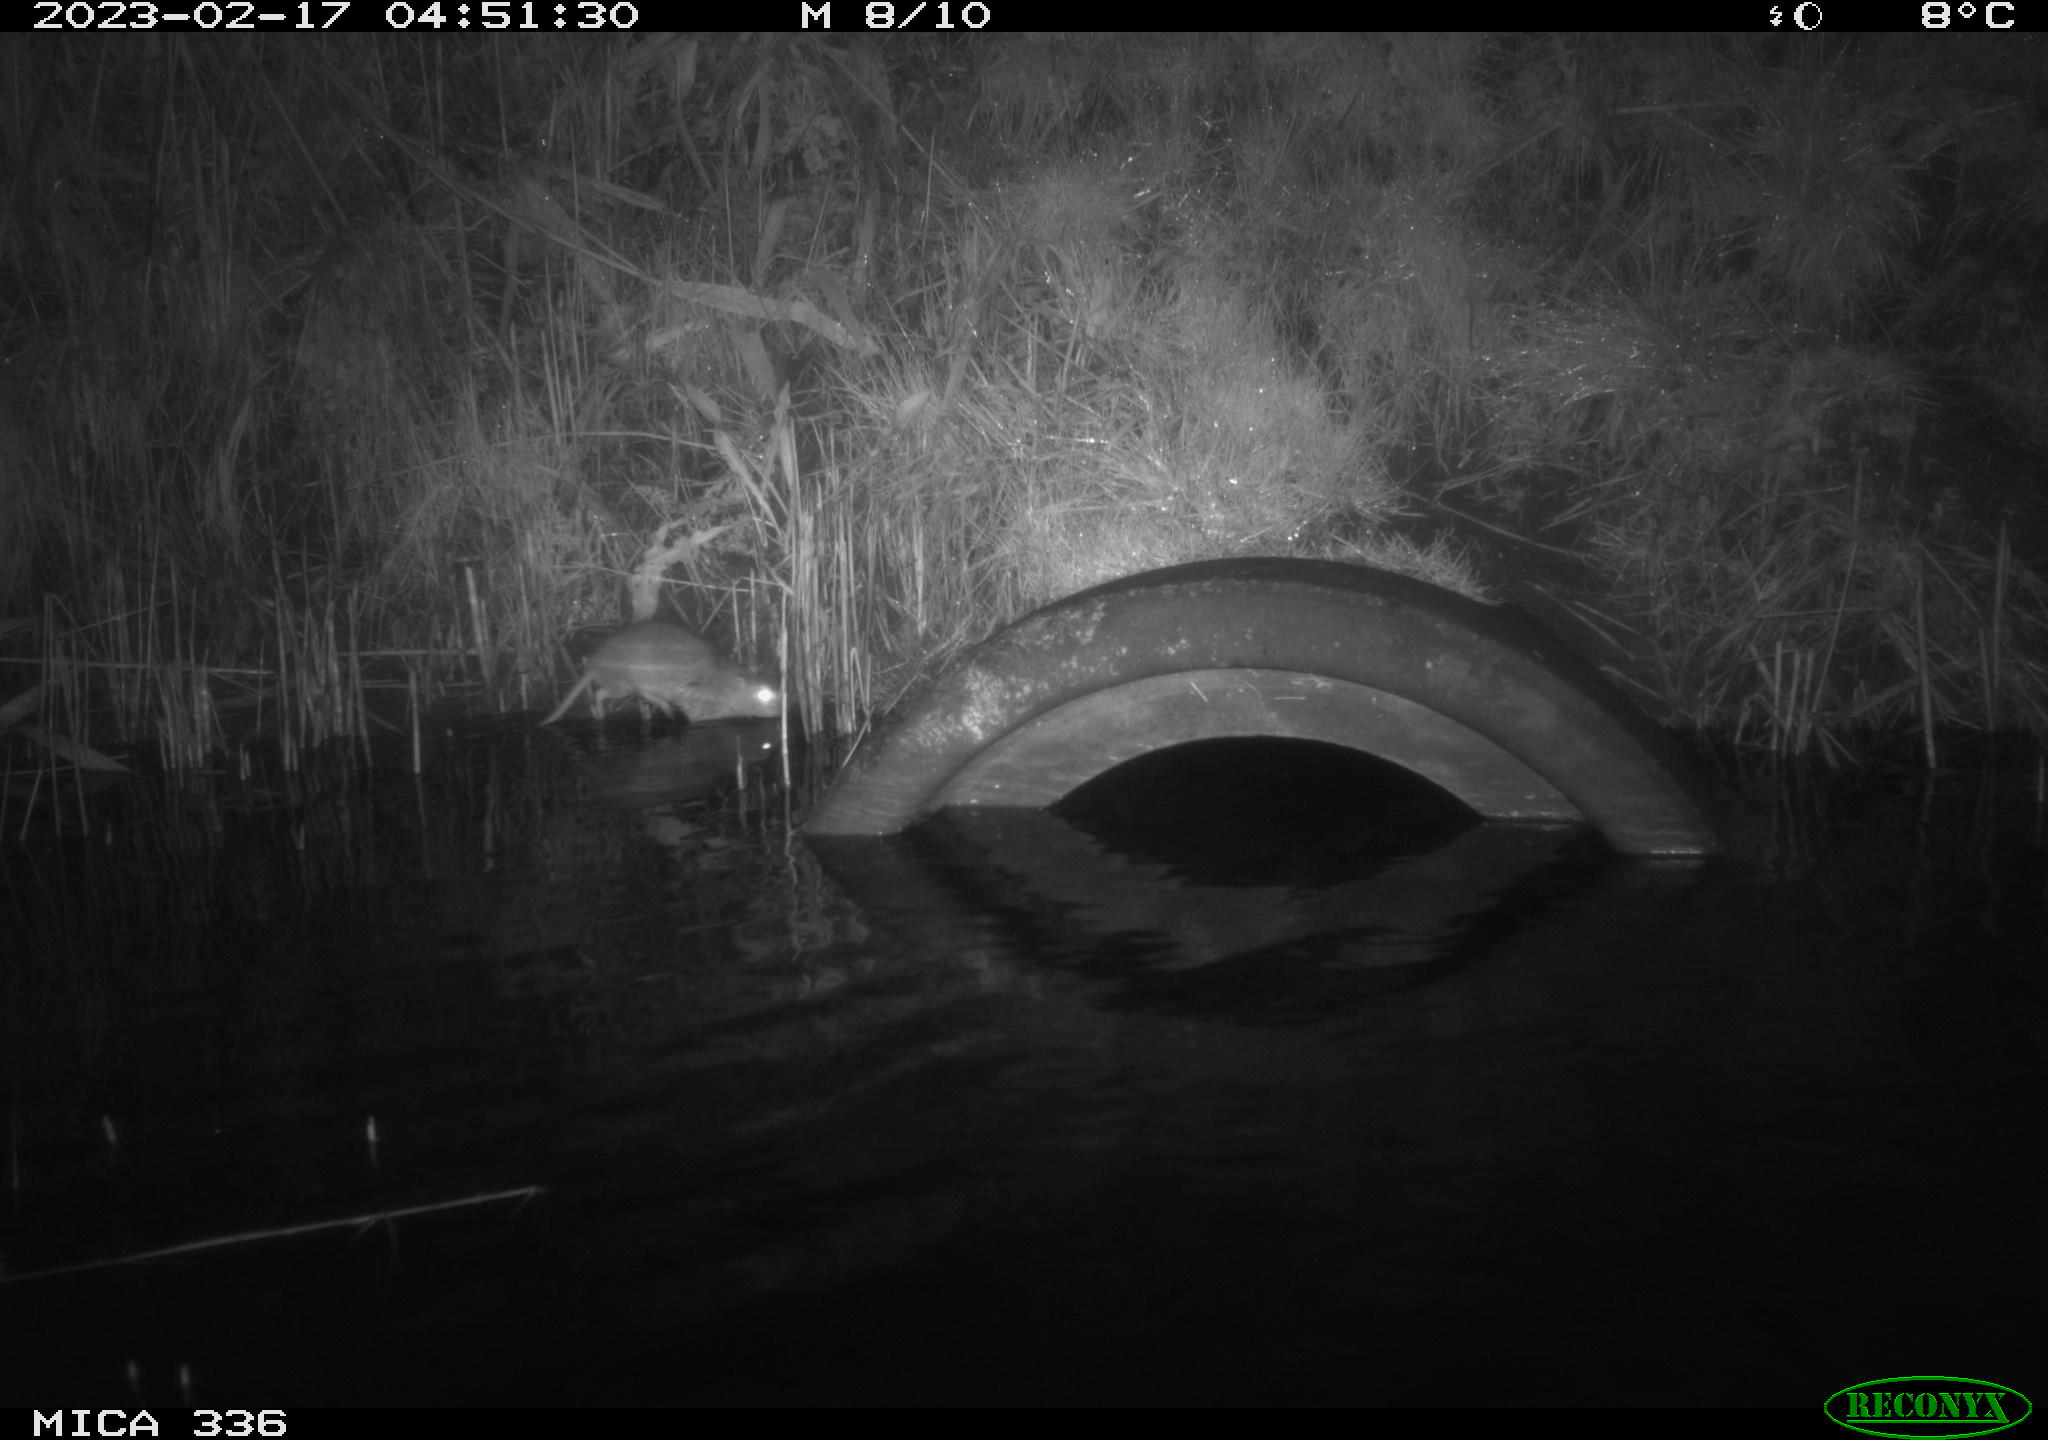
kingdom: Animalia
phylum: Chordata
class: Mammalia
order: Rodentia
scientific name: Rodentia
